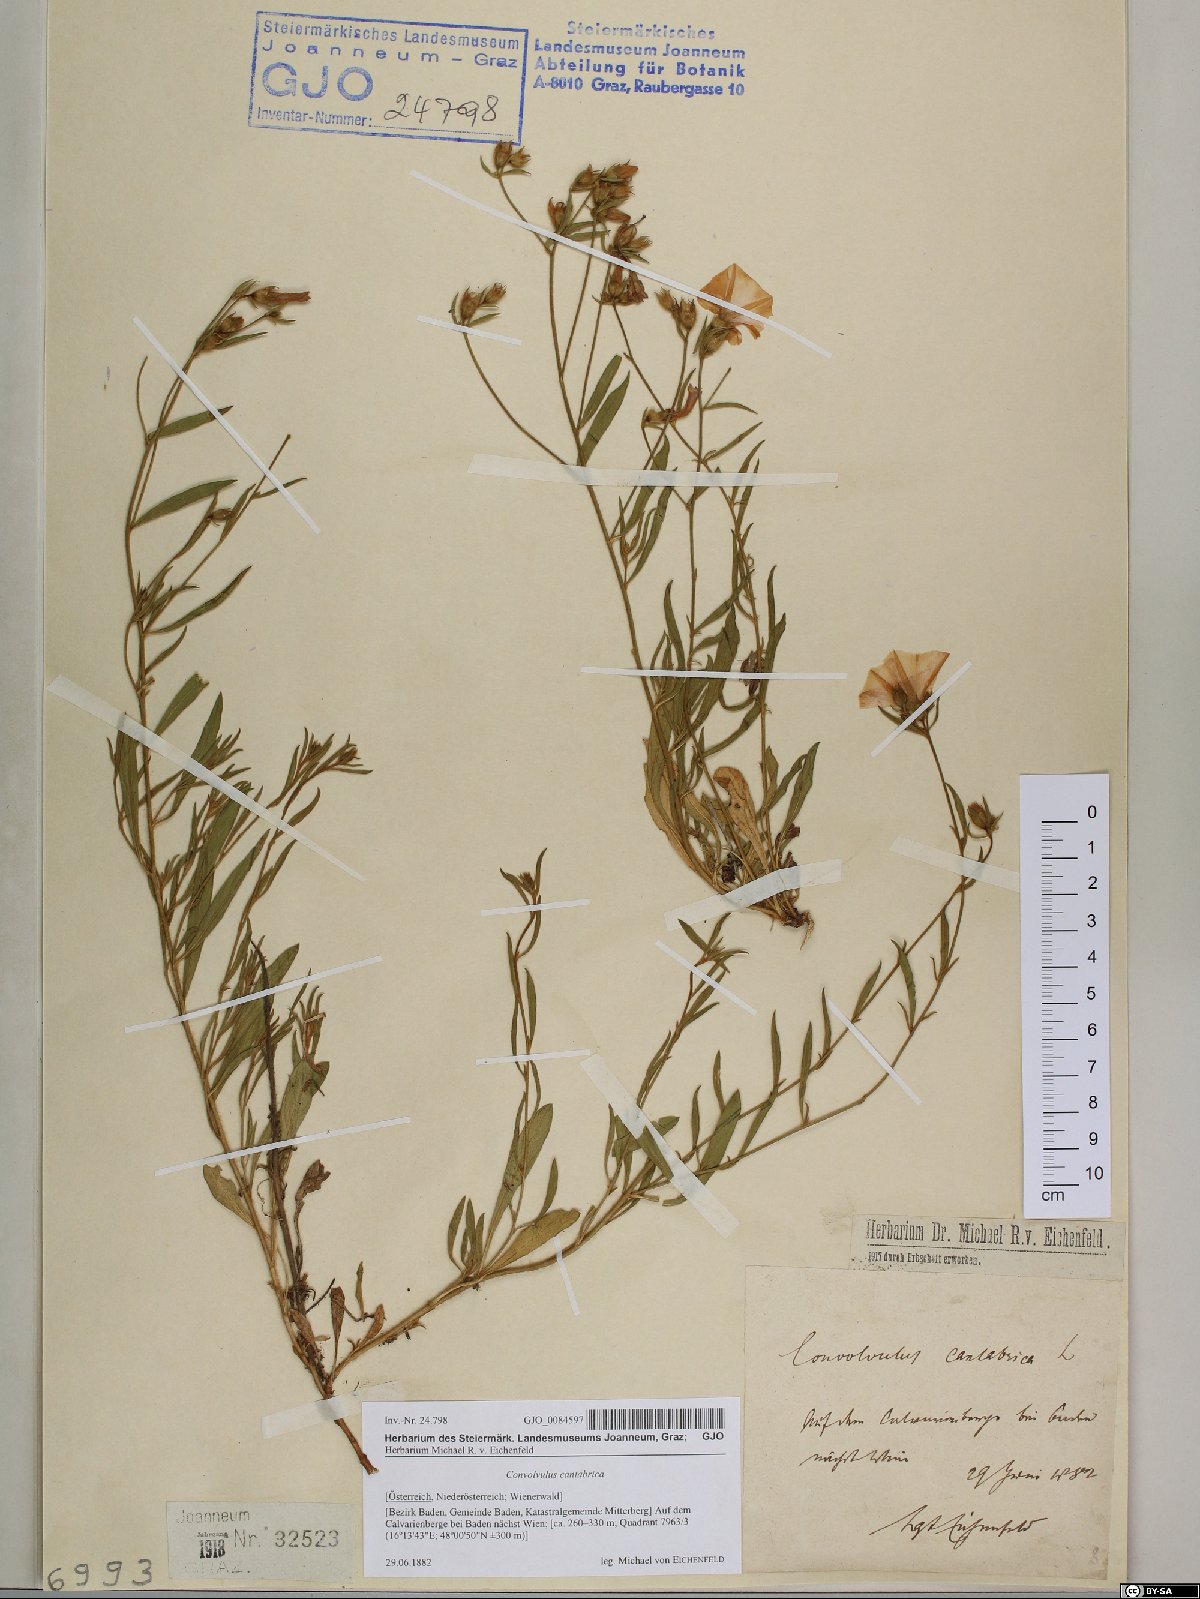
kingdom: Plantae
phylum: Tracheophyta
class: Magnoliopsida
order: Solanales
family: Convolvulaceae
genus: Convolvulus
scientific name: Convolvulus cantabrica
